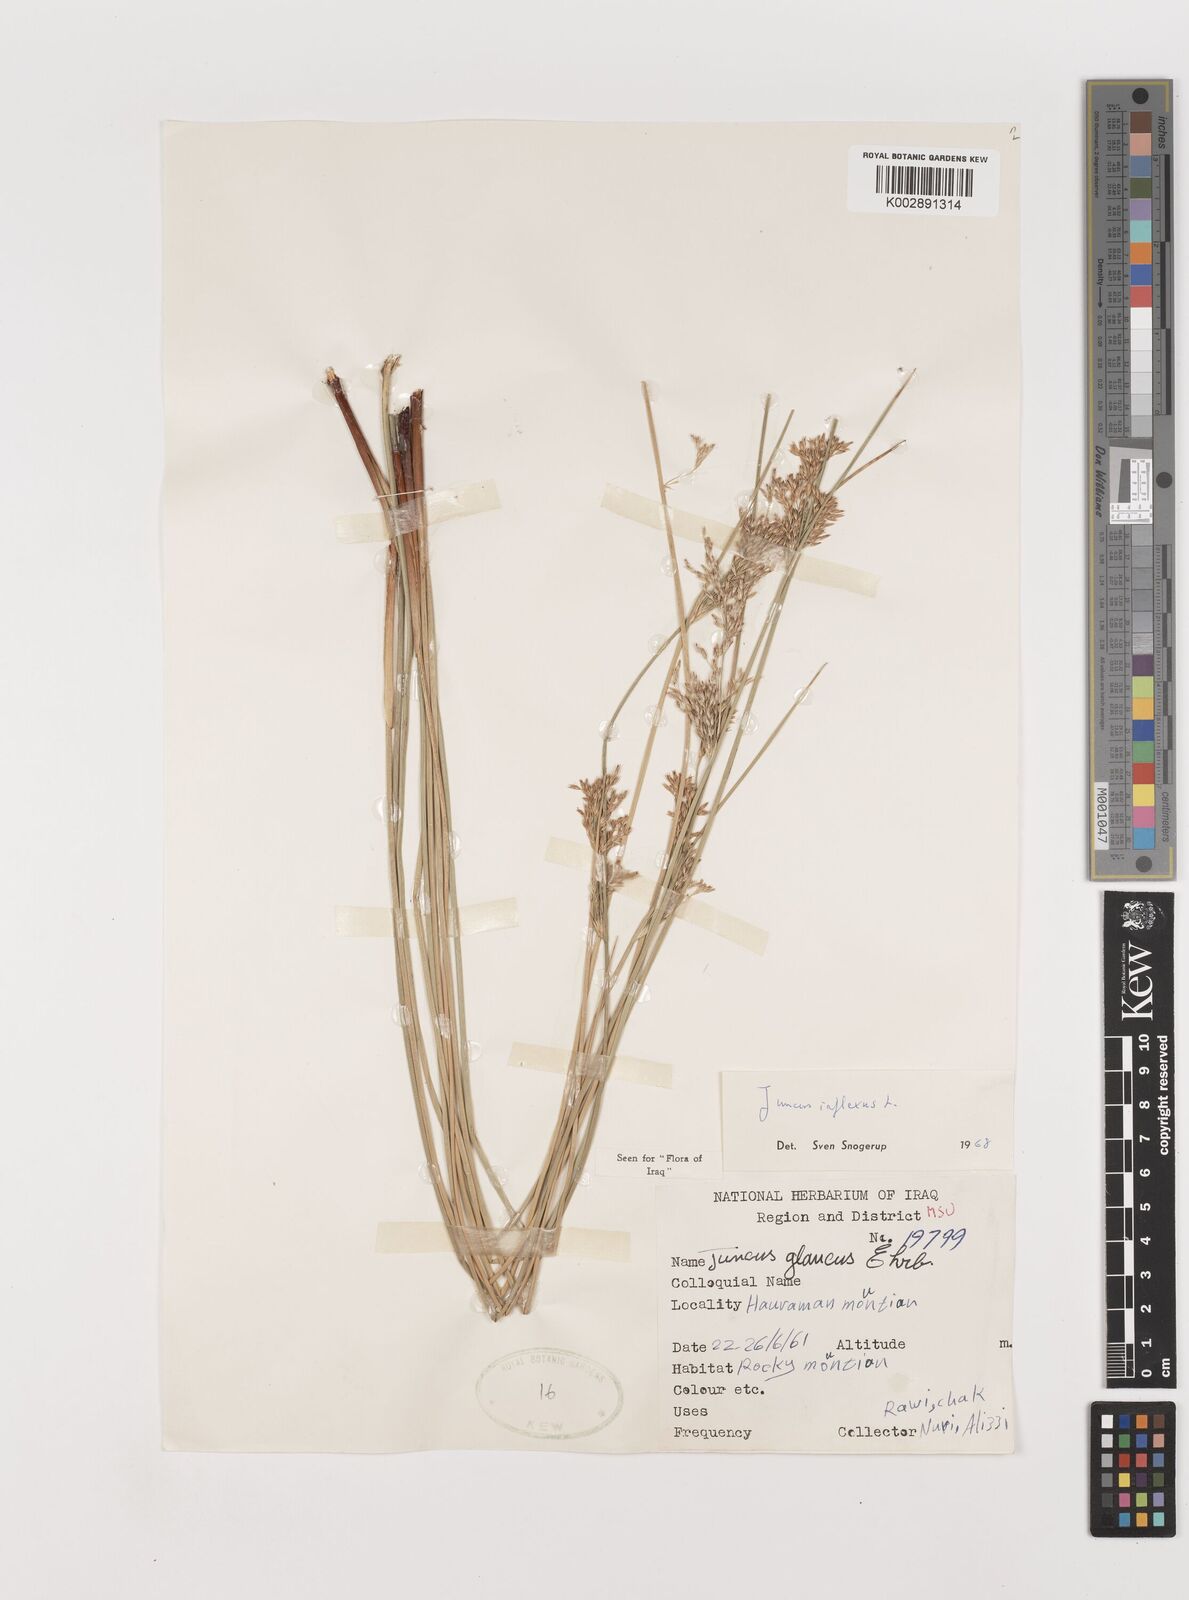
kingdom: Plantae
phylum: Tracheophyta
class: Liliopsida
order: Poales
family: Juncaceae
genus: Juncus
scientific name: Juncus inflexus
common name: Hard rush
